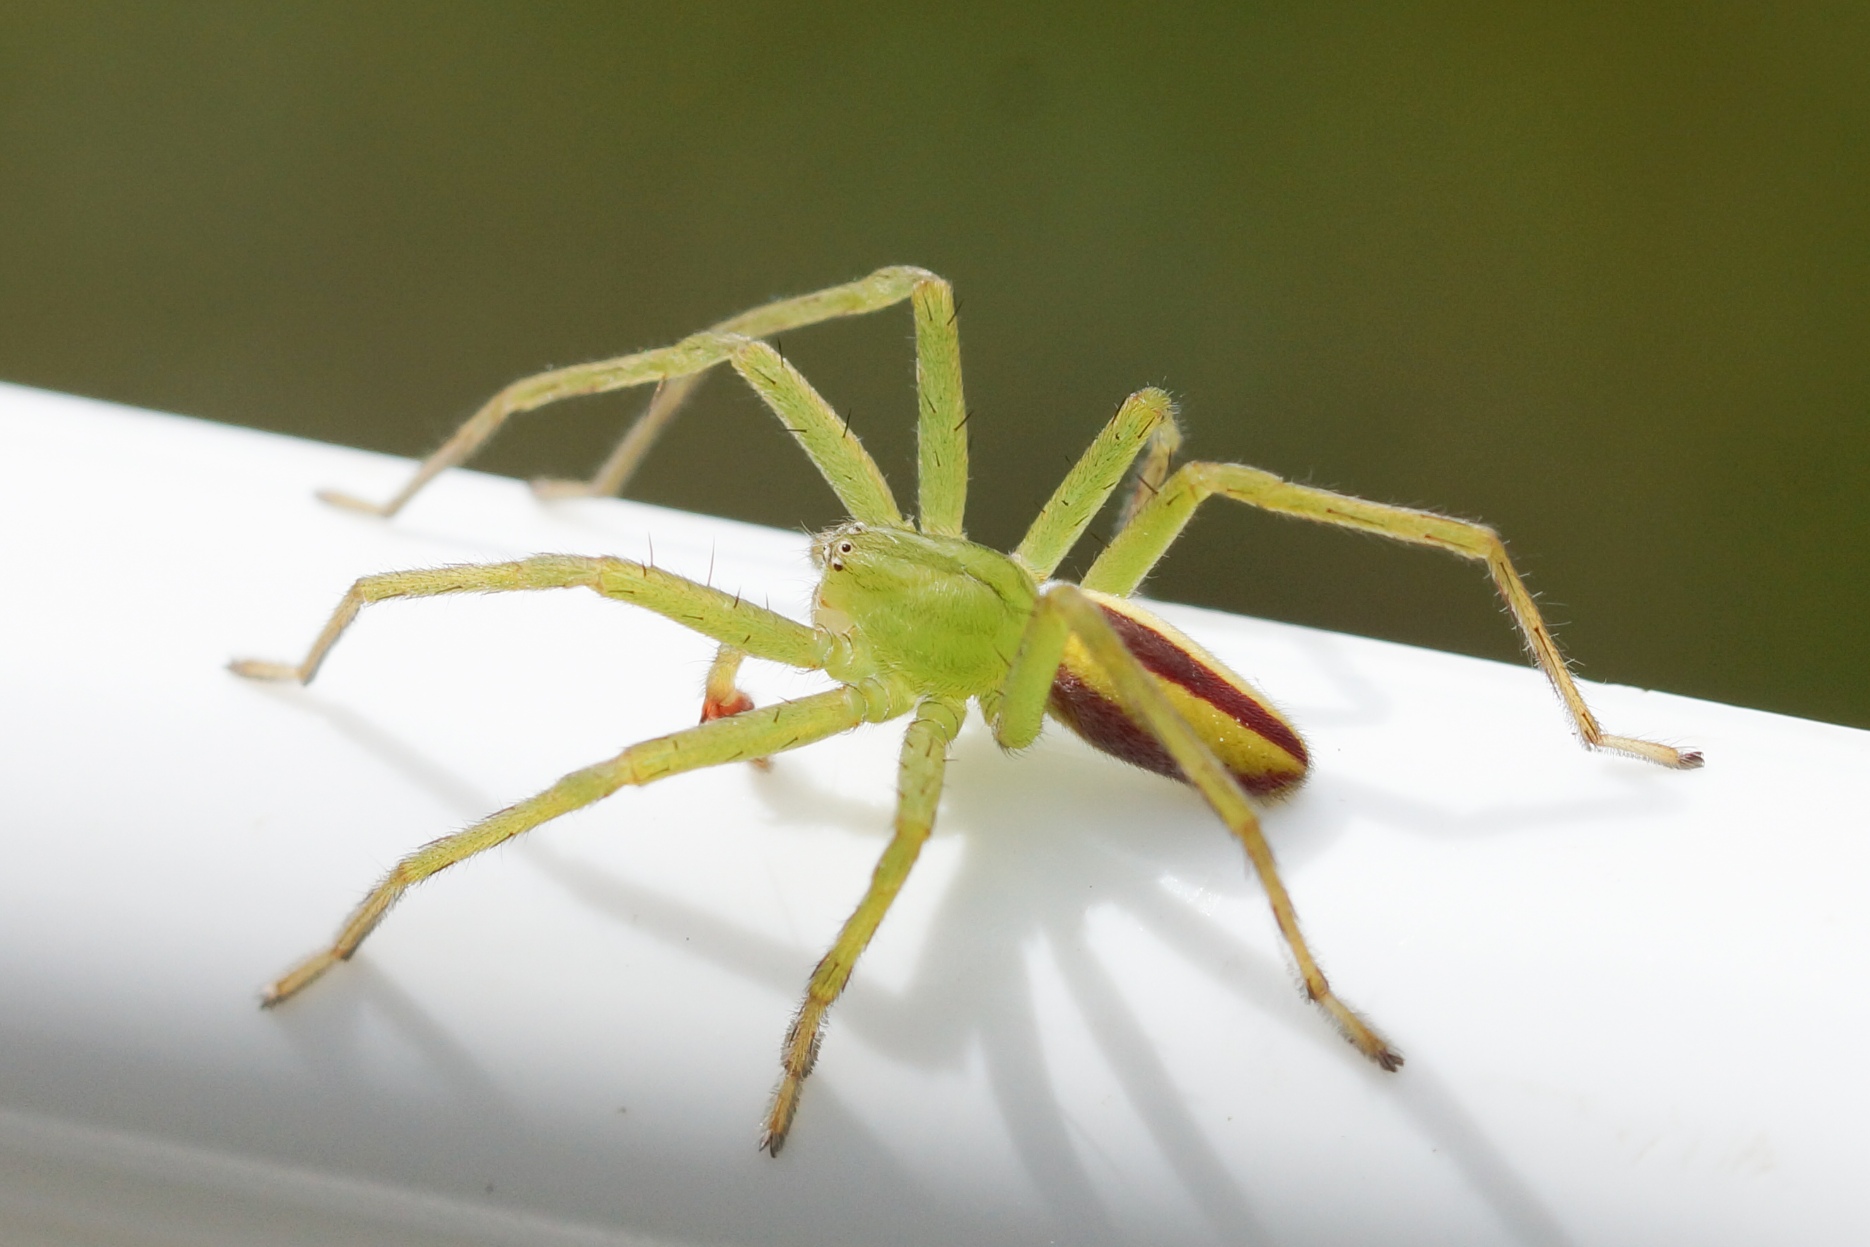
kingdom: Animalia
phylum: Arthropoda
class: Arachnida
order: Araneae
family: Sparassidae
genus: Micrommata
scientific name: Micrommata virescens
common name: Smaragdedderkop
